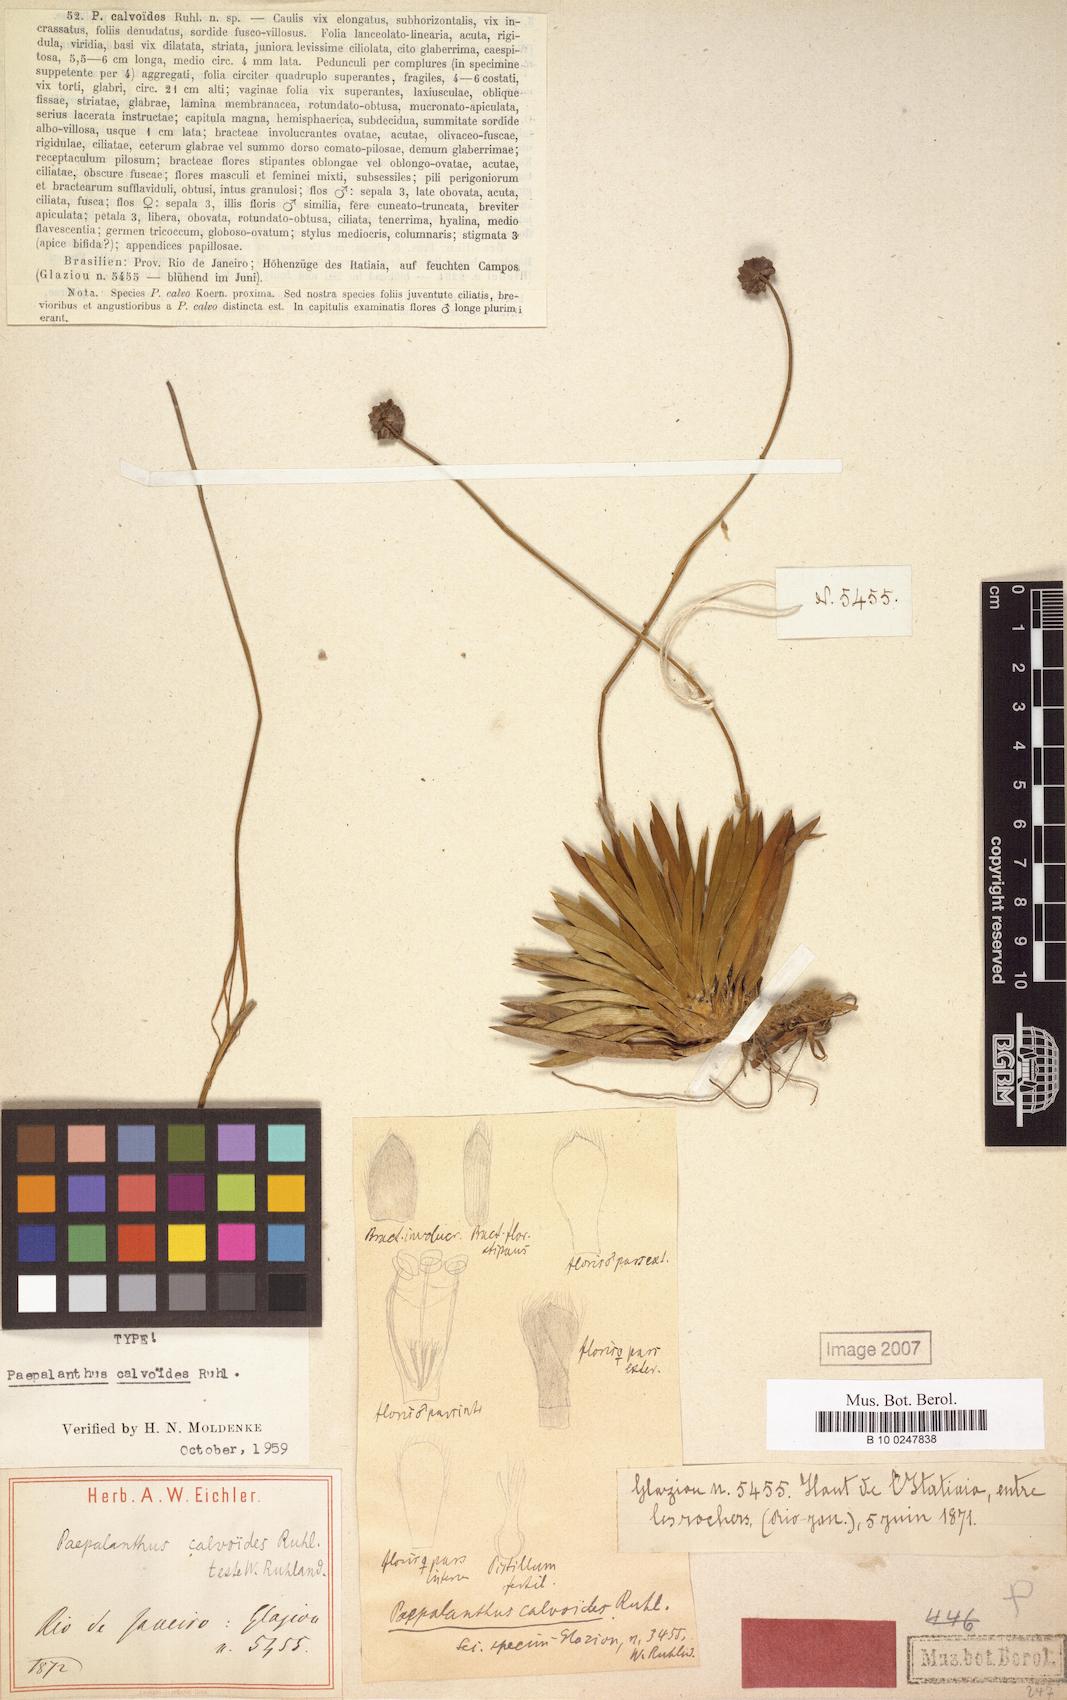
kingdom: Plantae
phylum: Tracheophyta
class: Liliopsida
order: Poales
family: Eriocaulaceae
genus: Paepalanthus
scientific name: Paepalanthus calvoides
